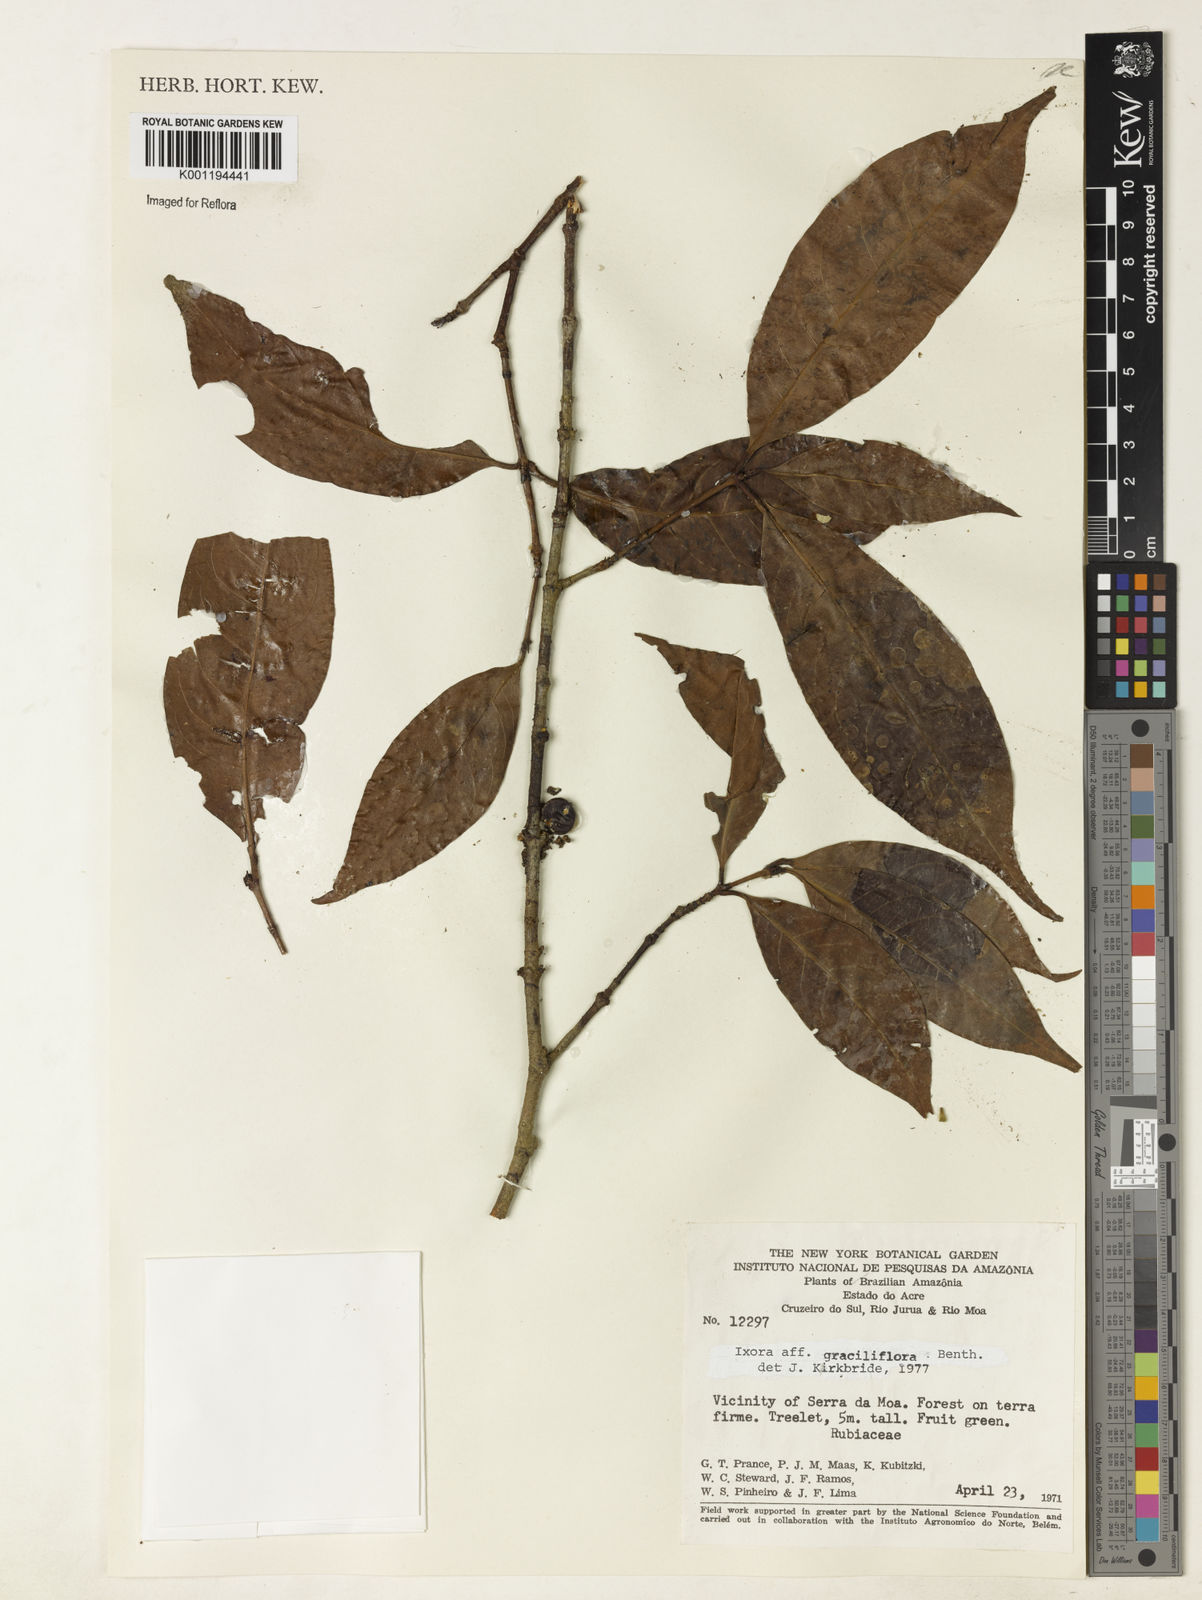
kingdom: Plantae
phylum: Tracheophyta
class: Magnoliopsida
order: Gentianales
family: Rubiaceae
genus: Ixora
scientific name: Ixora graciliflora
